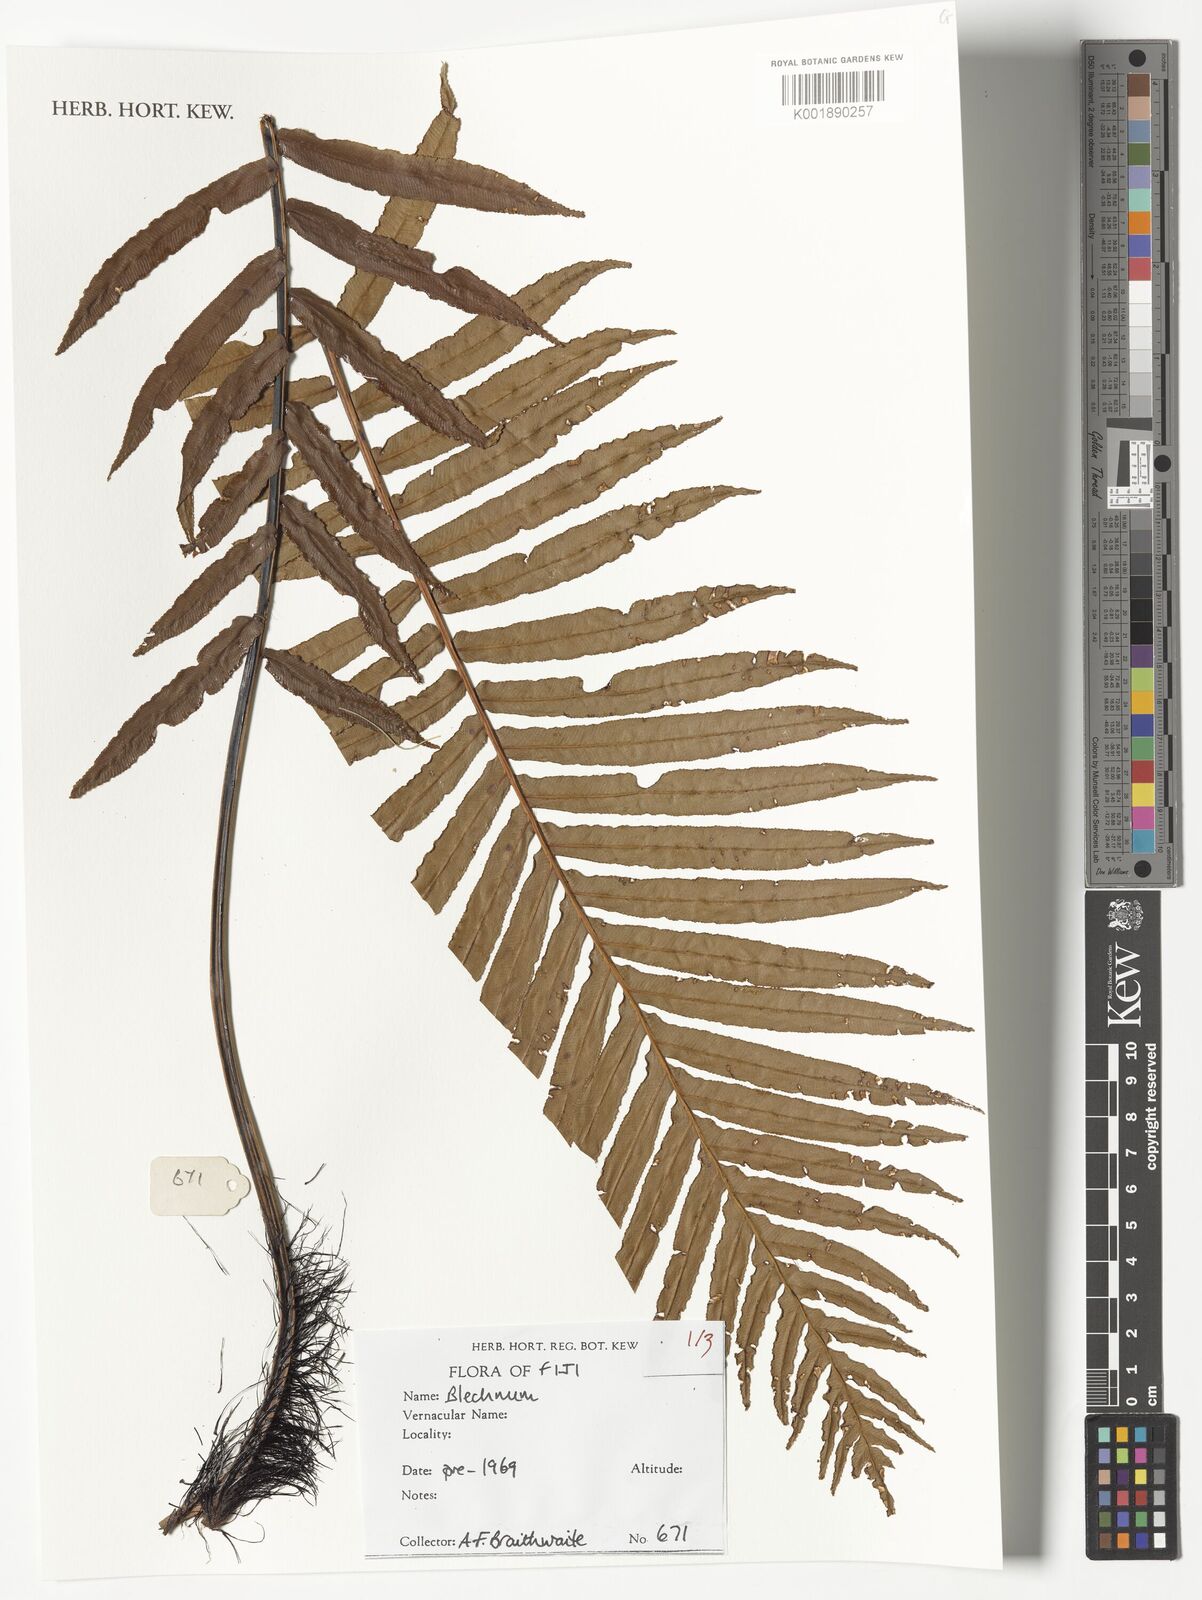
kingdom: Plantae
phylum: Tracheophyta
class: Polypodiopsida
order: Polypodiales
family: Blechnaceae
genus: Blechnum
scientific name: Blechnum
